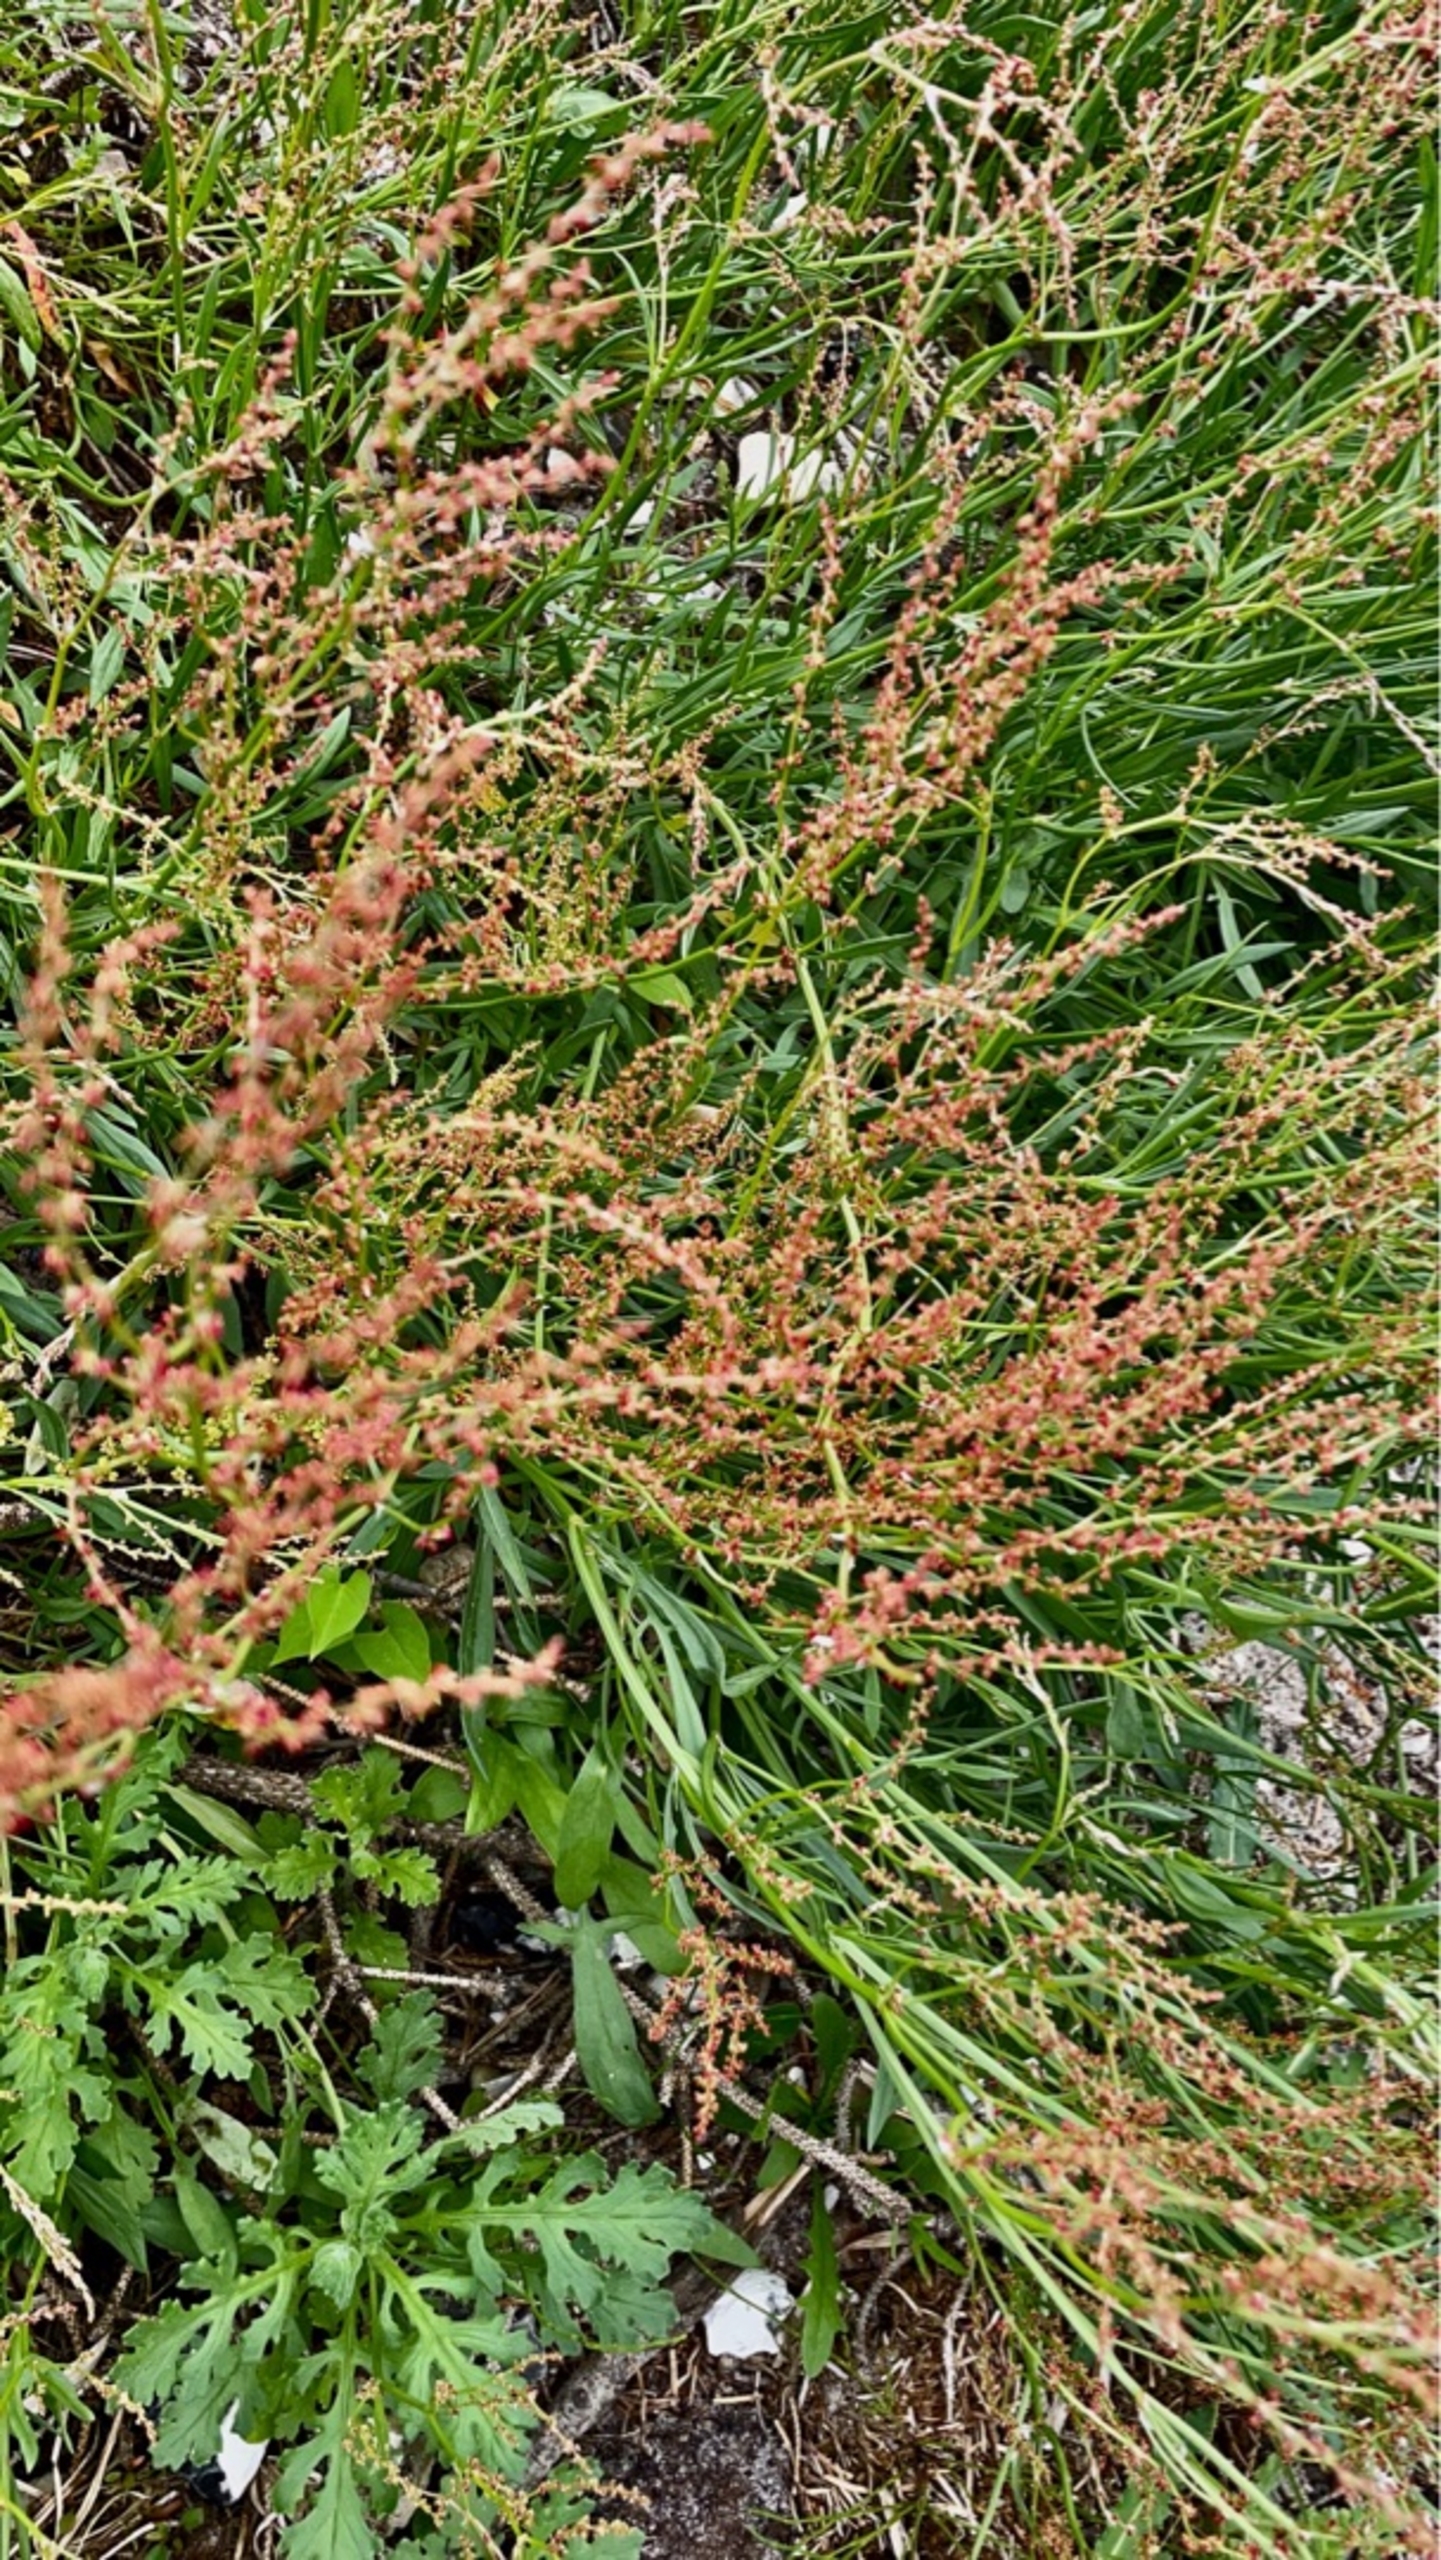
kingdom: Plantae
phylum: Tracheophyta
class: Magnoliopsida
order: Caryophyllales
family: Polygonaceae
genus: Rumex
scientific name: Rumex acetosella
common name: Rødknæ
